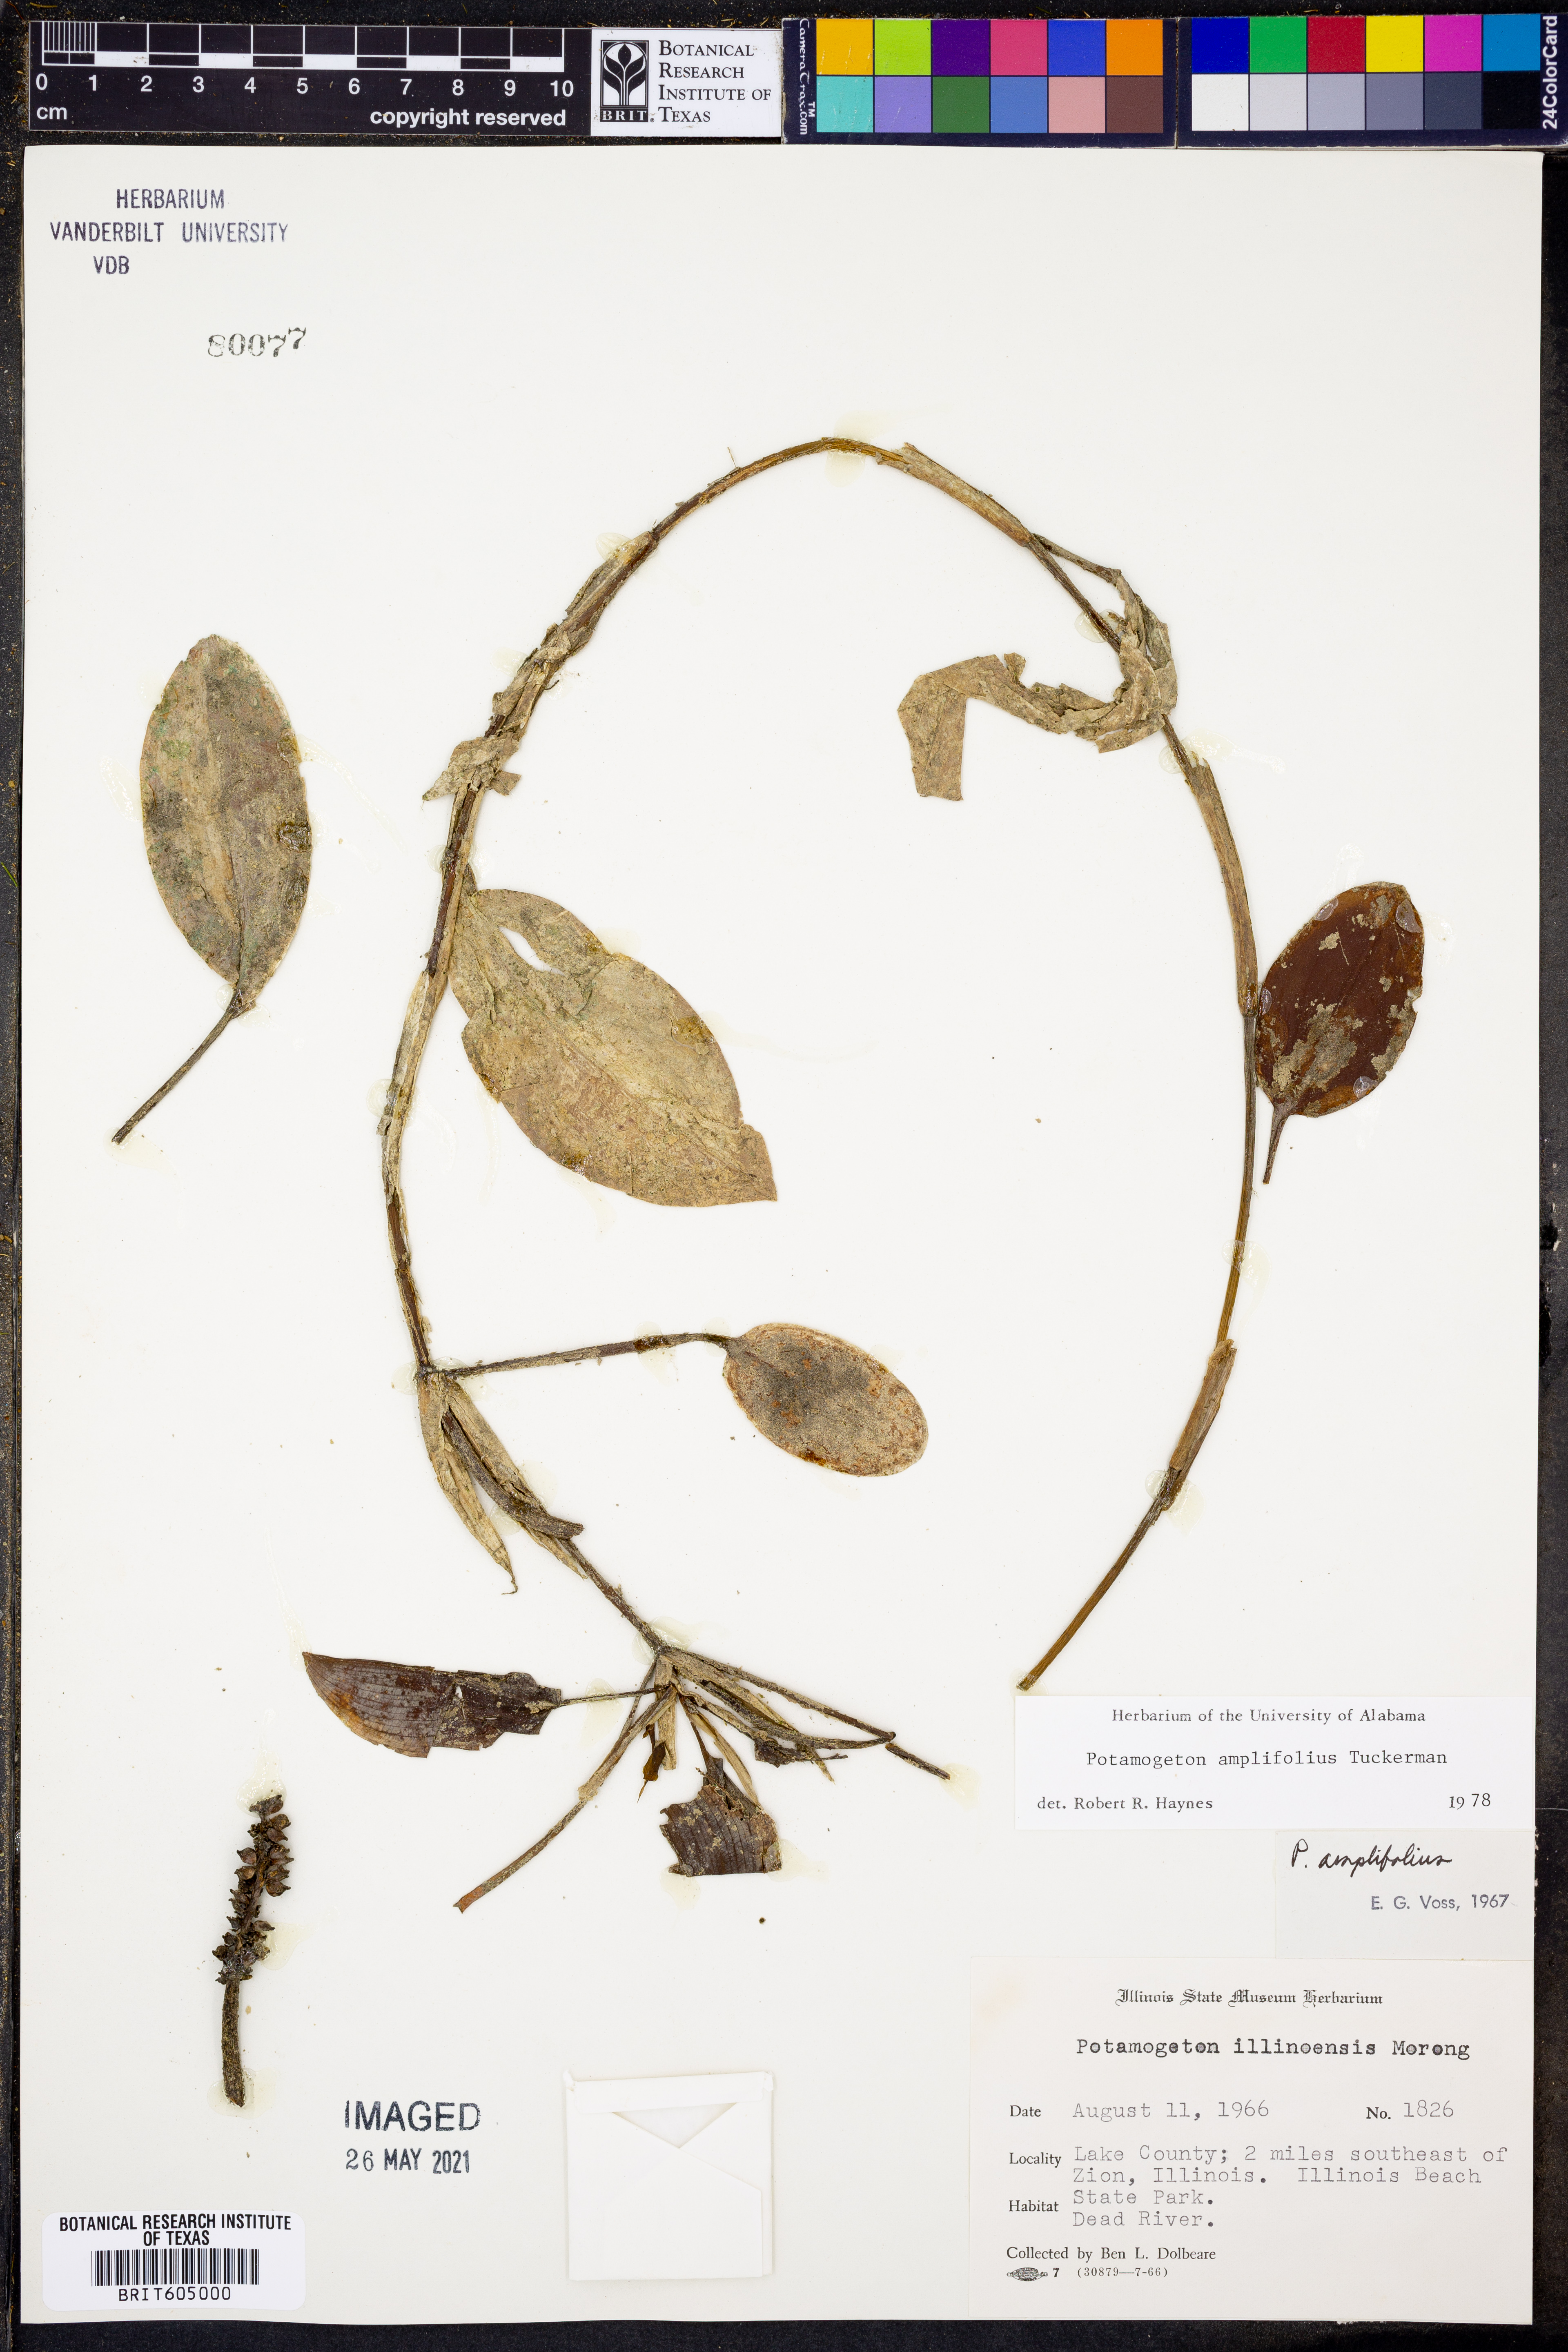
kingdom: Plantae
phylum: Tracheophyta
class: Liliopsida
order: Alismatales
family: Potamogetonaceae
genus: Potamogeton
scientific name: Potamogeton amplifolius
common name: Broad-leaved pondweed
